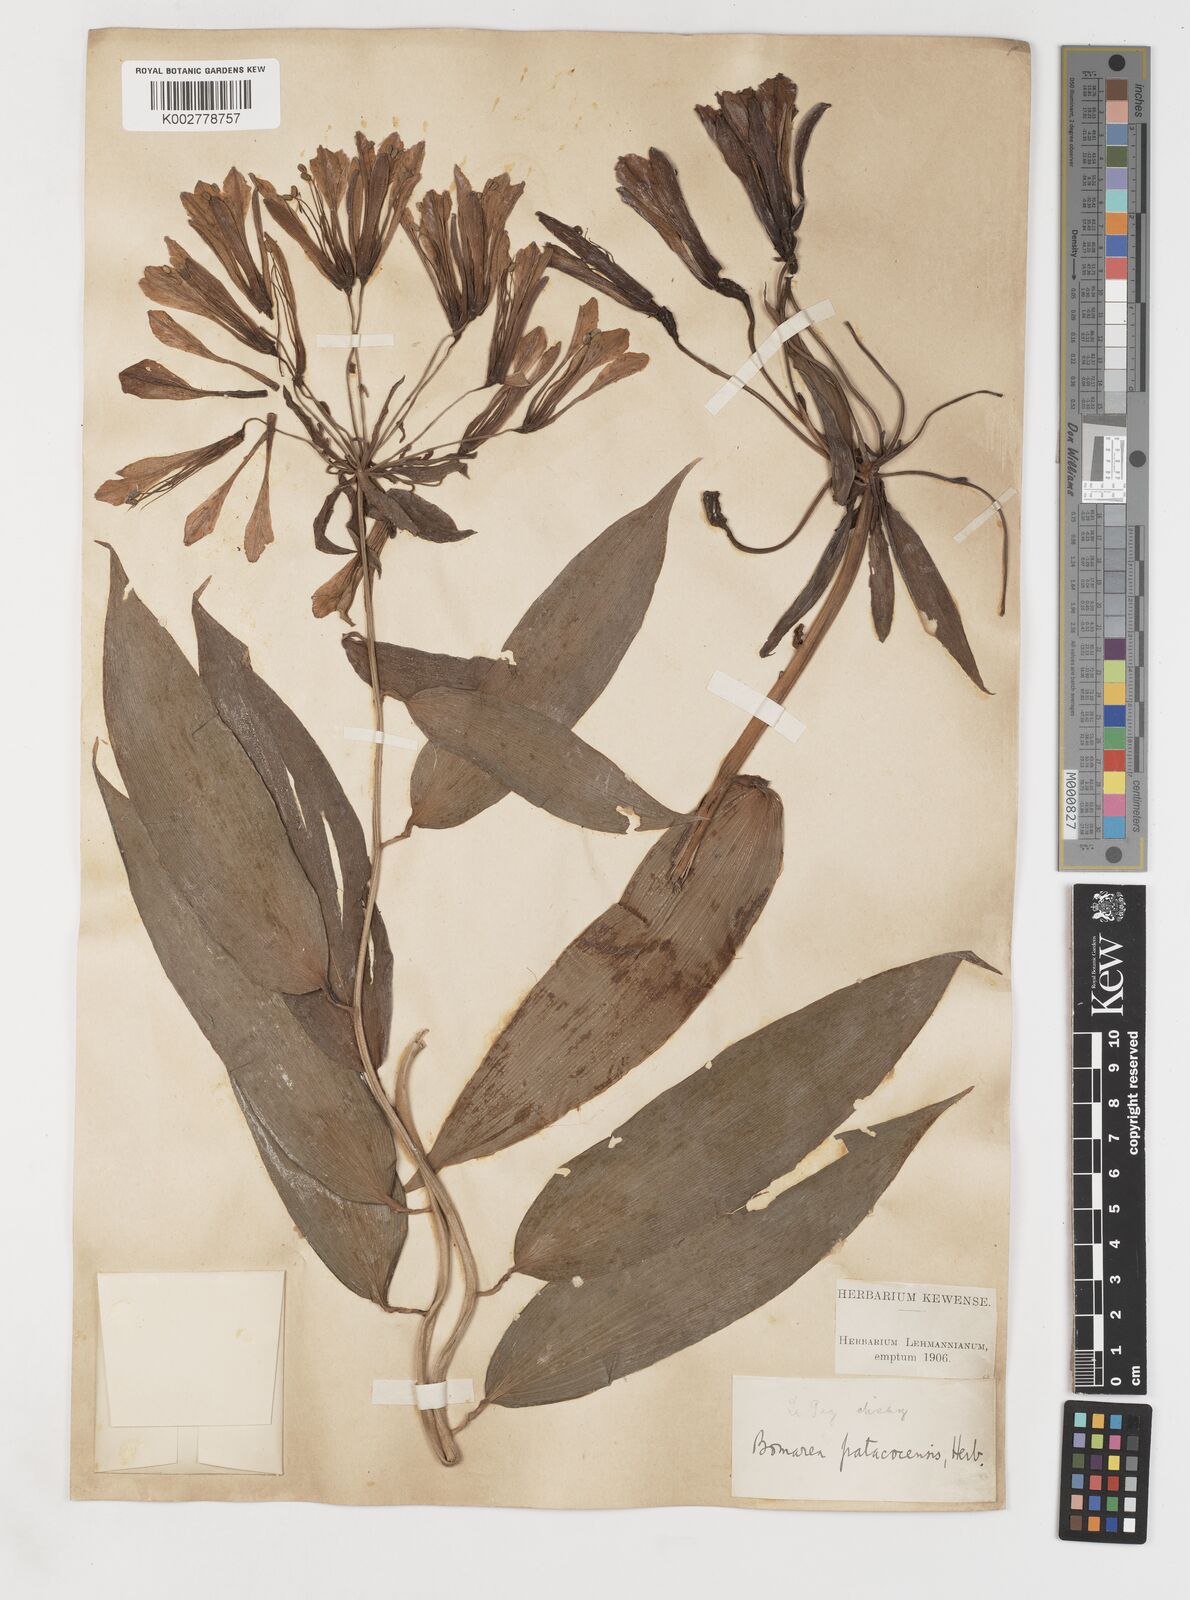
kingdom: Plantae
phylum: Tracheophyta
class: Liliopsida
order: Liliales
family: Alstroemeriaceae
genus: Bomarea
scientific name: Bomarea andreana
